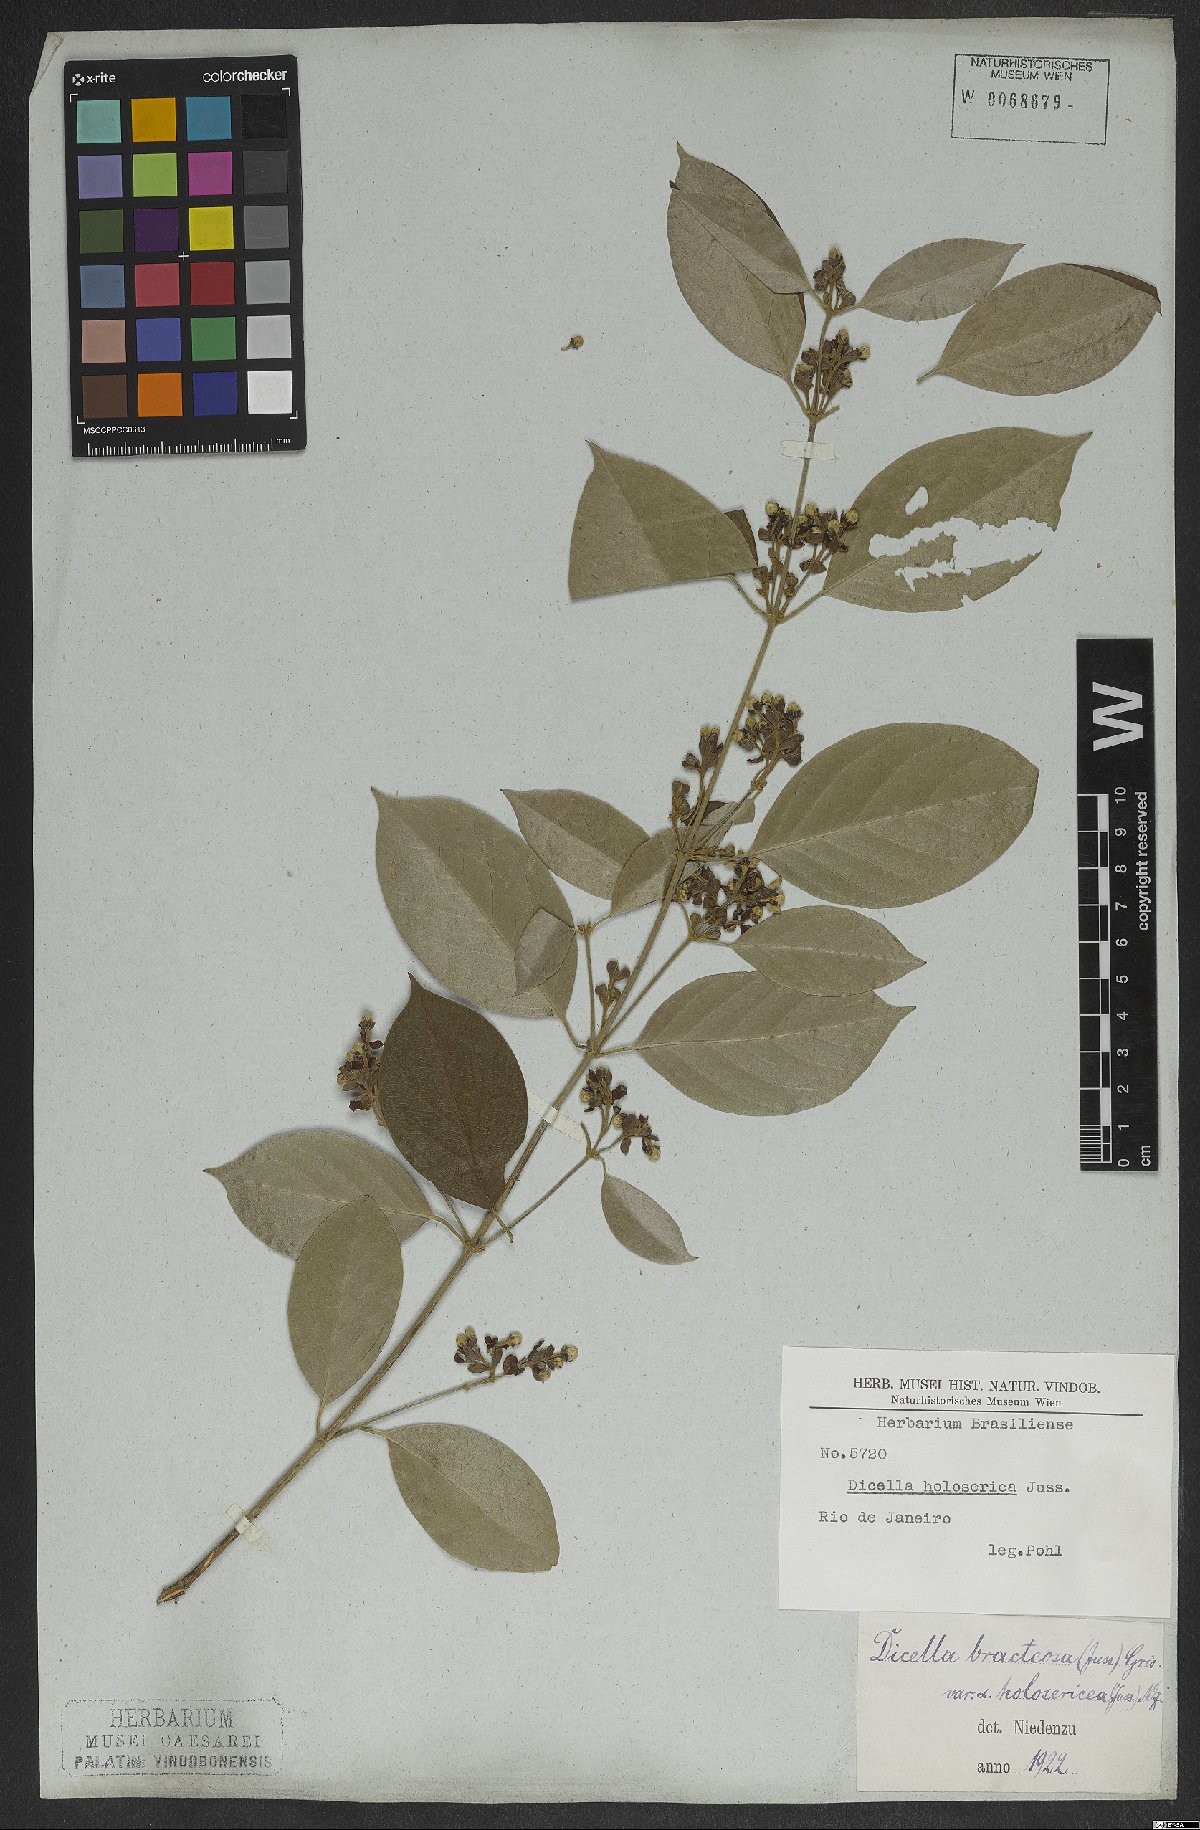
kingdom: Plantae
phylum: Tracheophyta
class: Magnoliopsida
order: Malpighiales
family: Malpighiaceae
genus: Dicella
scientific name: Dicella bracteosa
